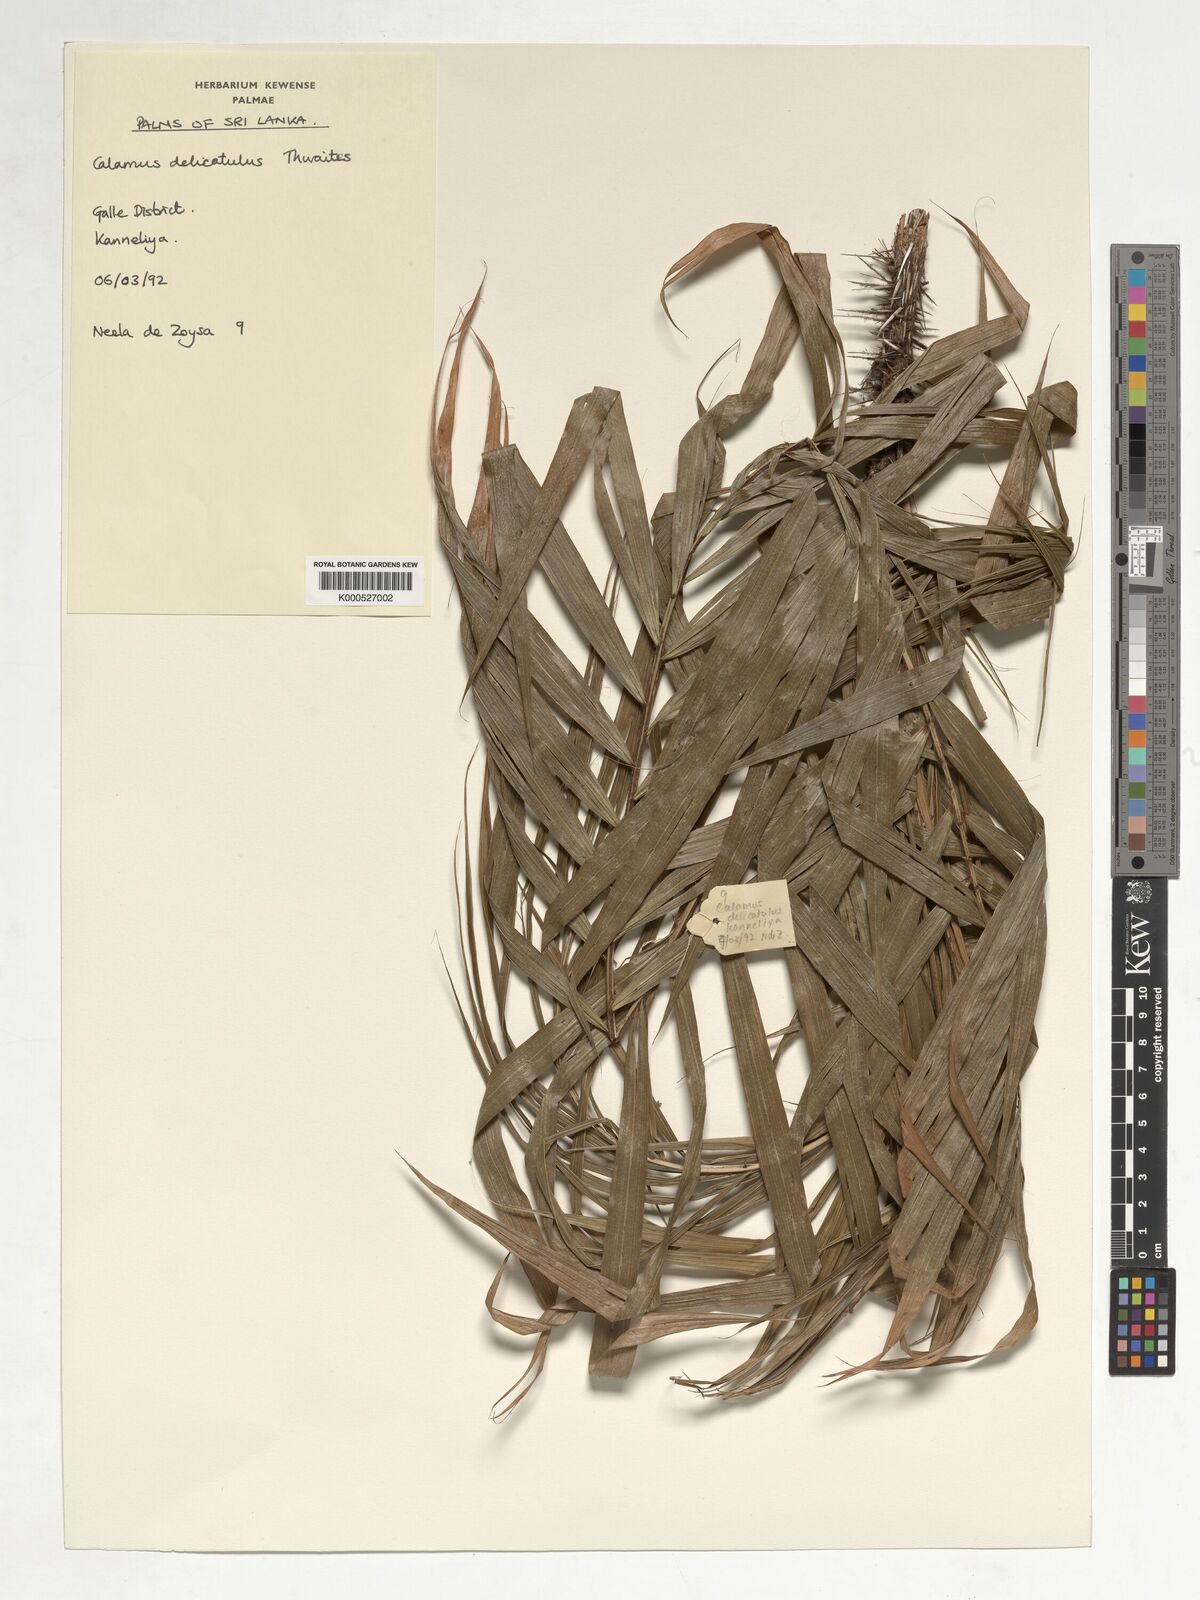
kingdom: Plantae
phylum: Tracheophyta
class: Liliopsida
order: Arecales
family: Arecaceae
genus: Calamus
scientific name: Calamus delicatulus
